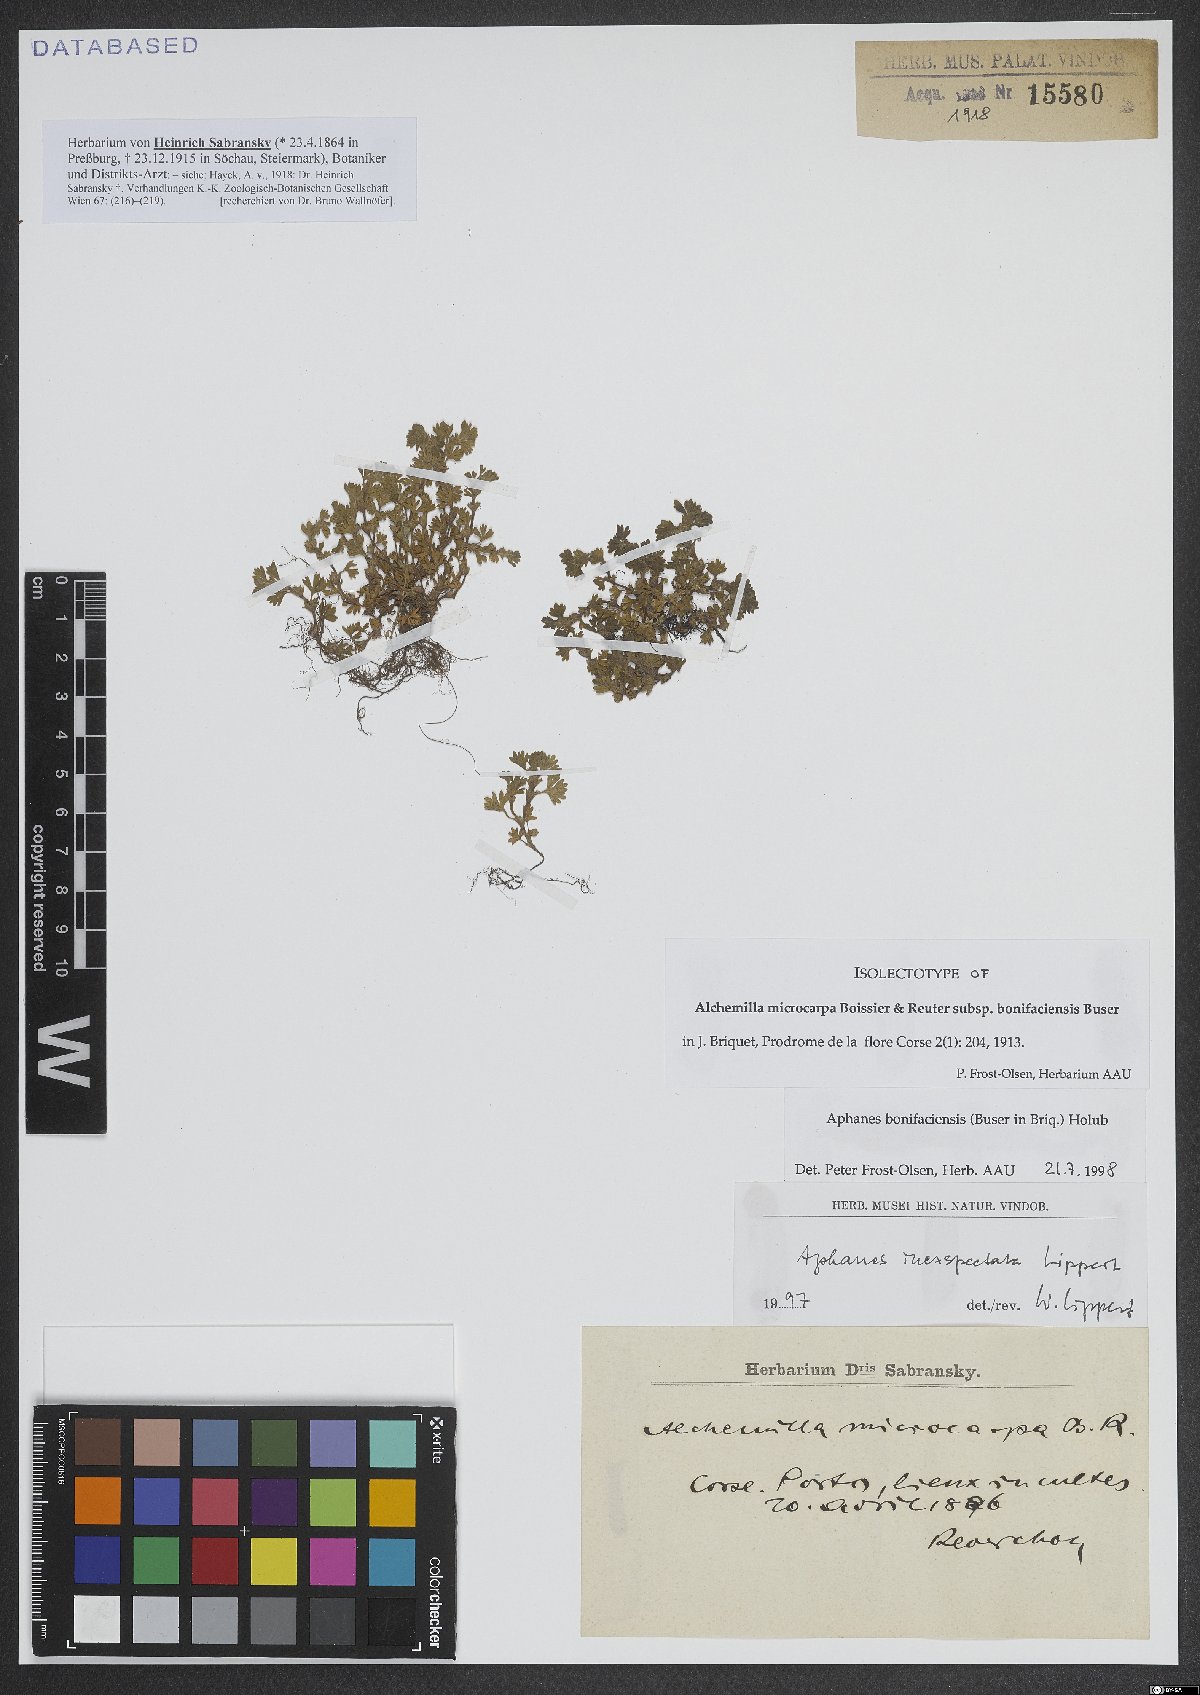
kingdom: Plantae
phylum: Tracheophyta
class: Magnoliopsida
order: Rosales
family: Rosaceae
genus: Aphanes
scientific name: Aphanes minutiflora
